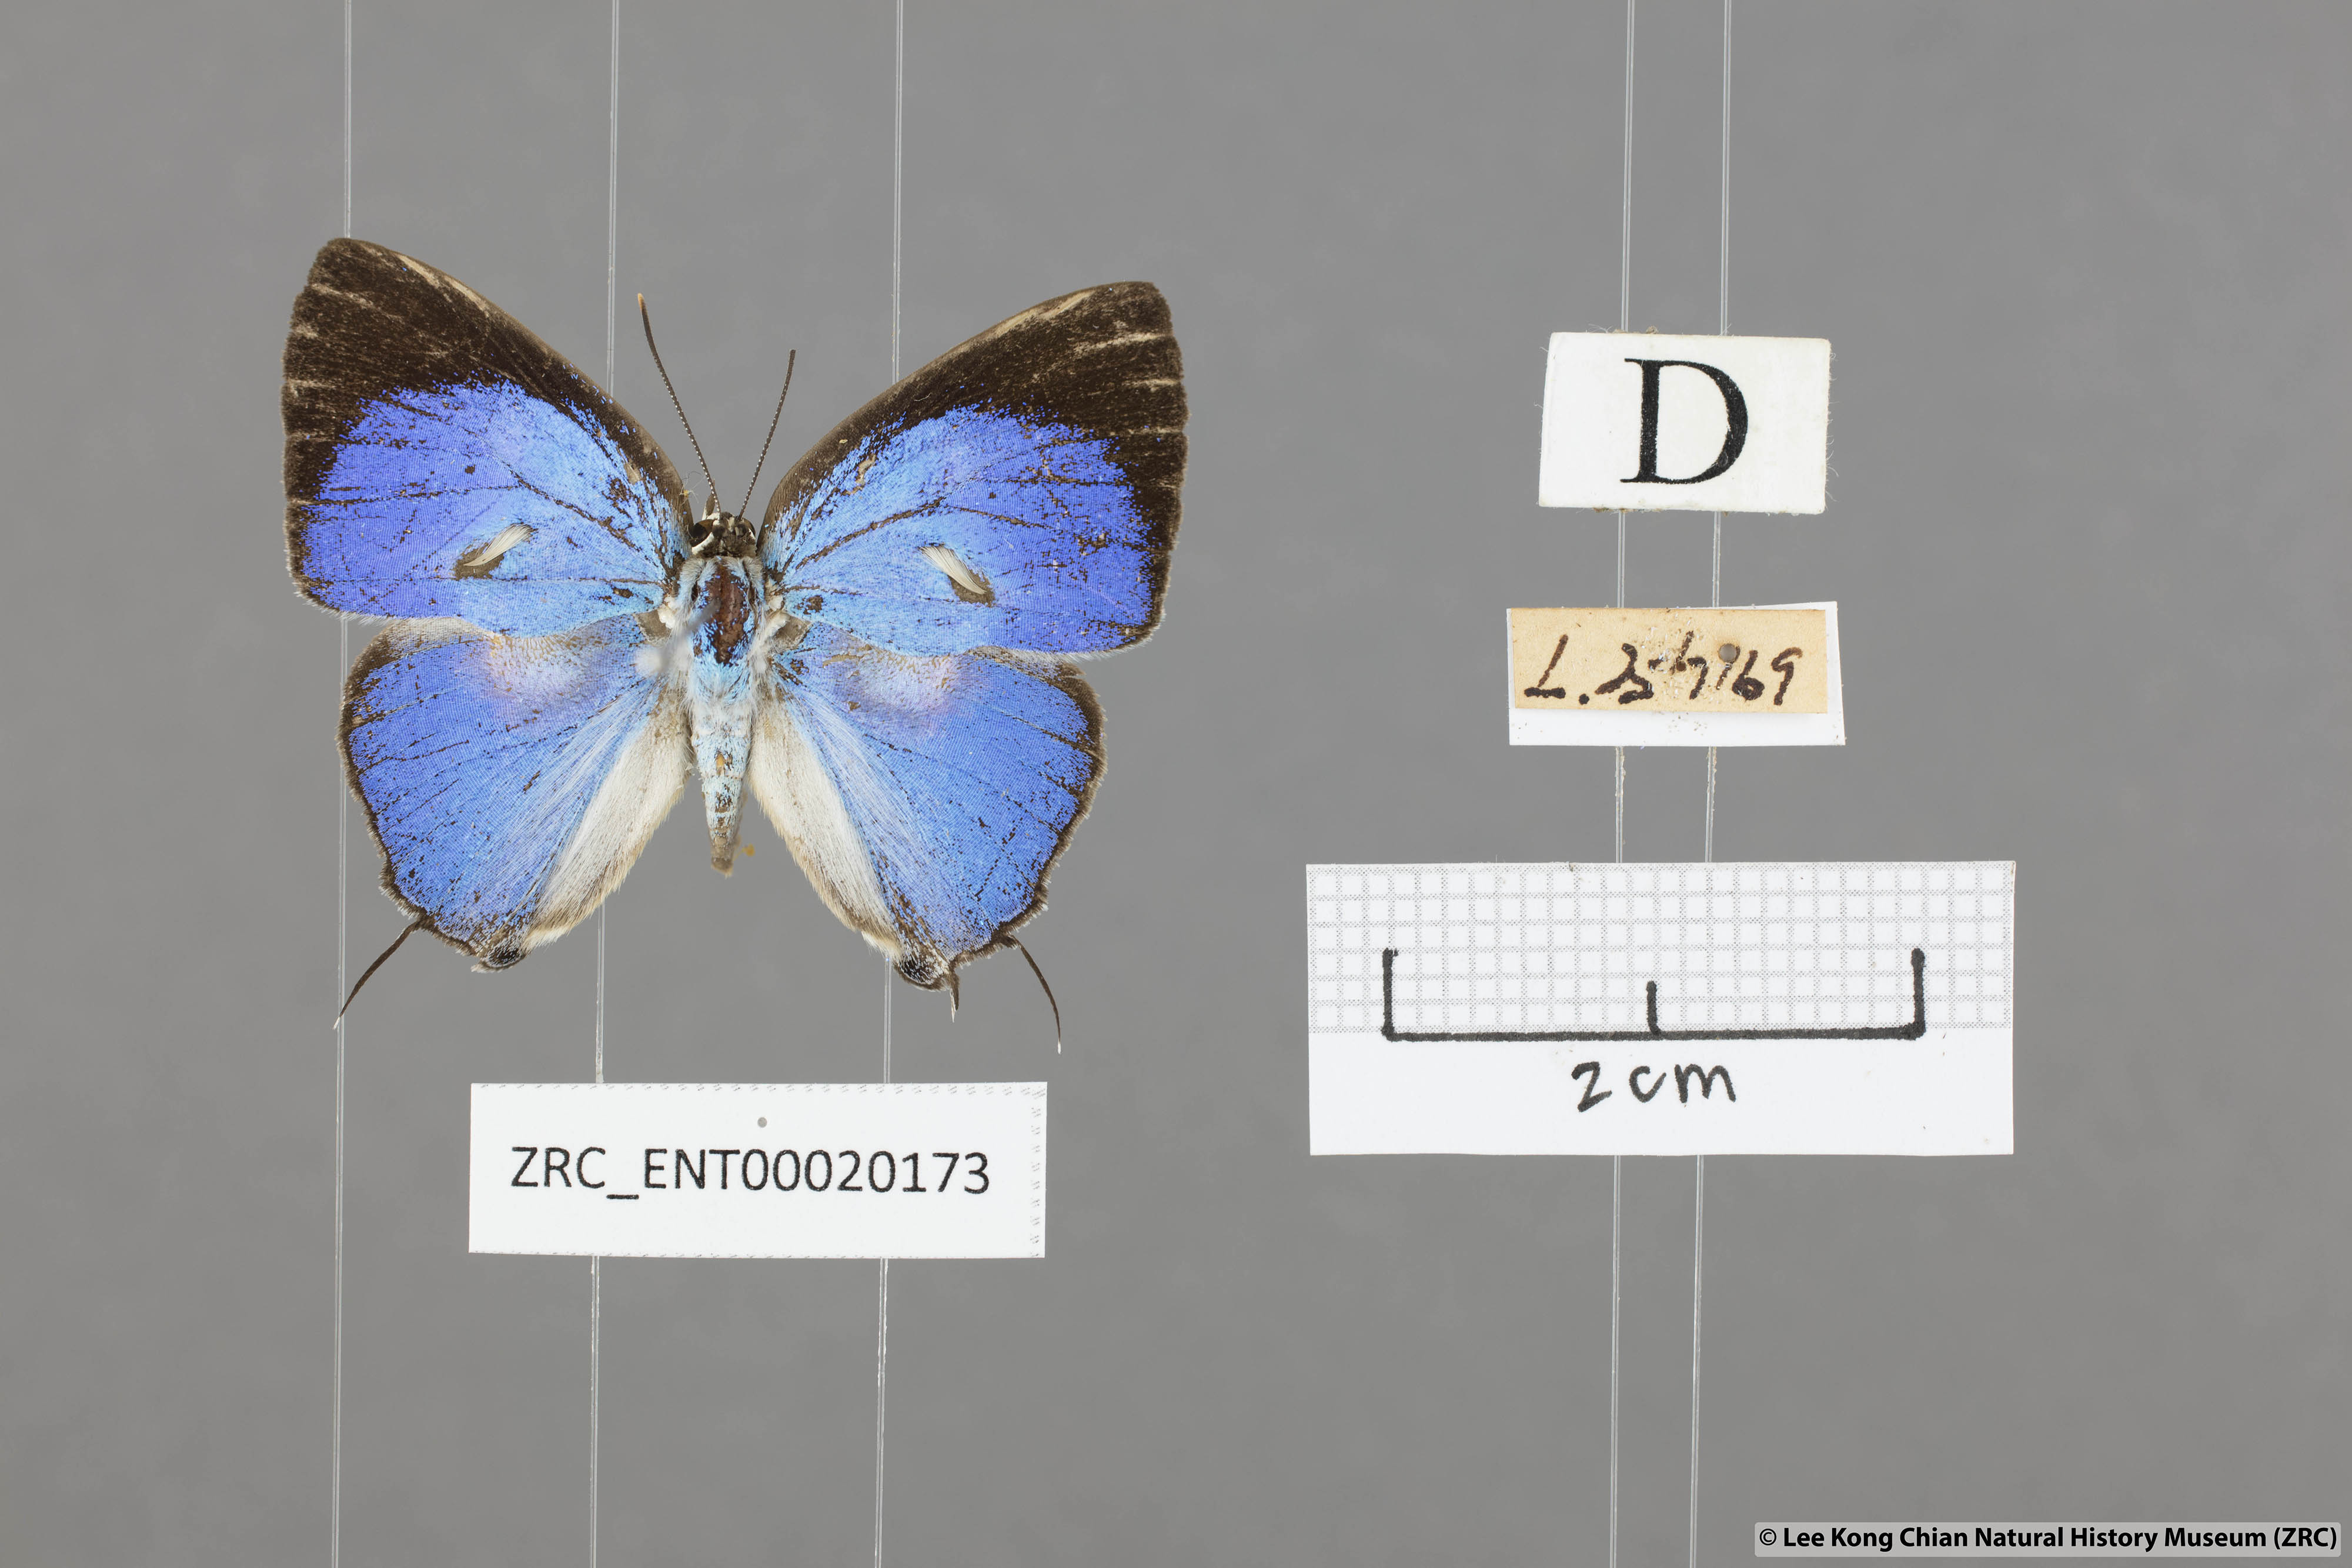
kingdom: Animalia
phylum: Arthropoda
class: Insecta
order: Lepidoptera
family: Lycaenidae
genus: Dacalana
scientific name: Dacalana vidura
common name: Medium-branded royal
